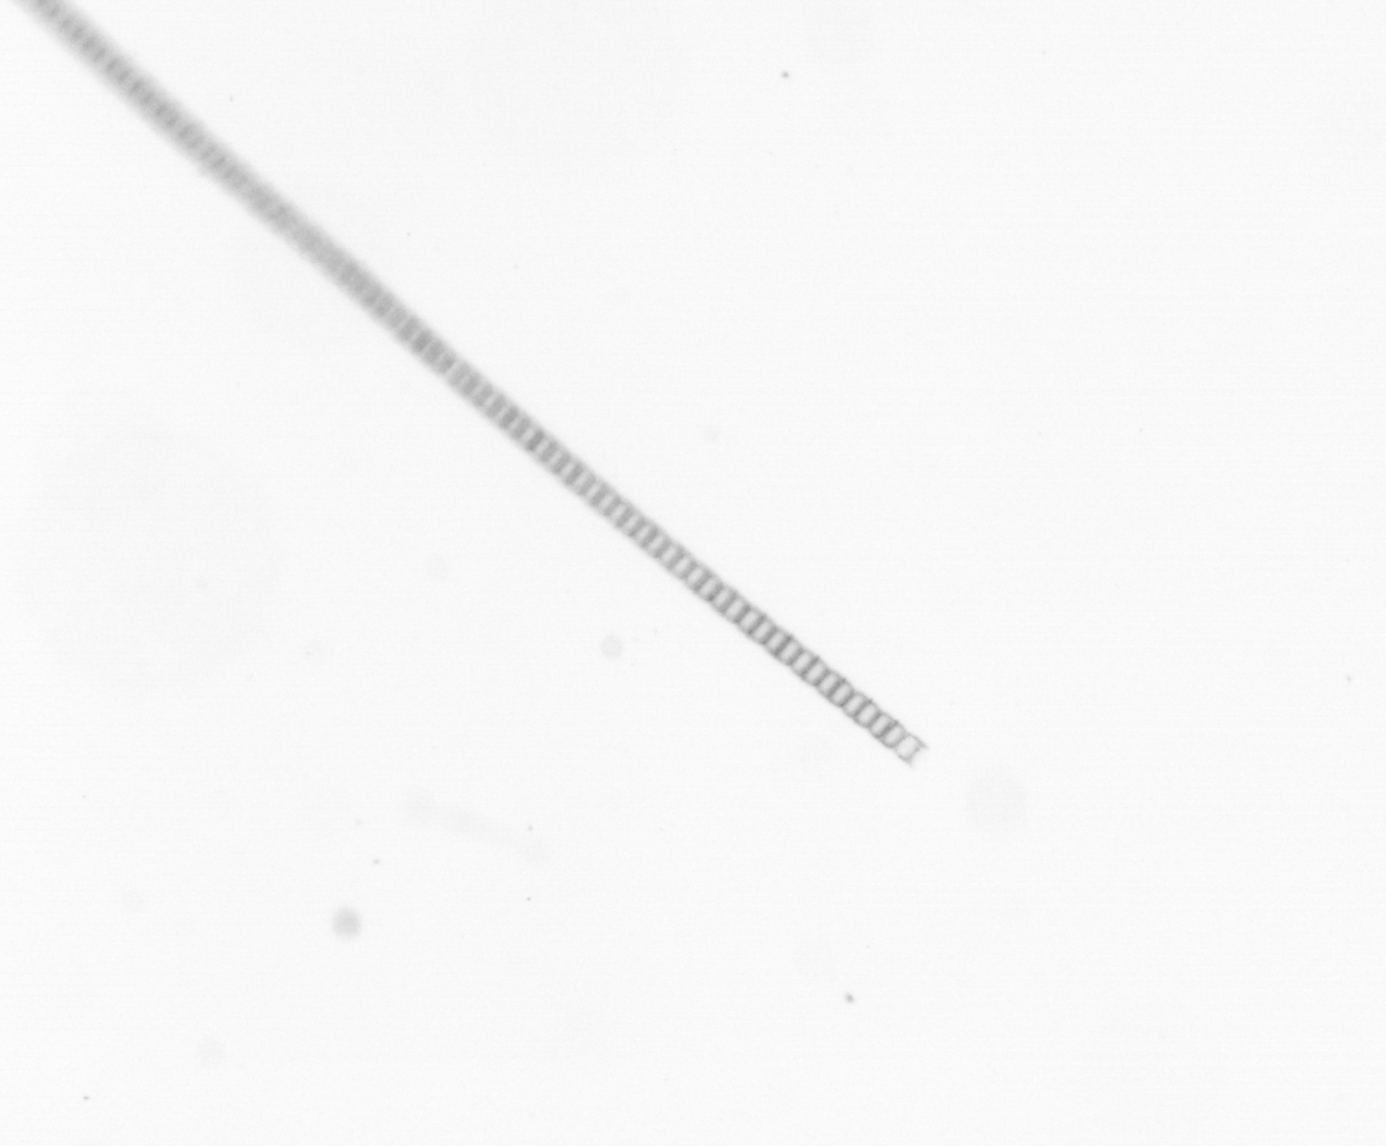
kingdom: Chromista
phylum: Ochrophyta
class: Bacillariophyceae
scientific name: Bacillariophyceae
